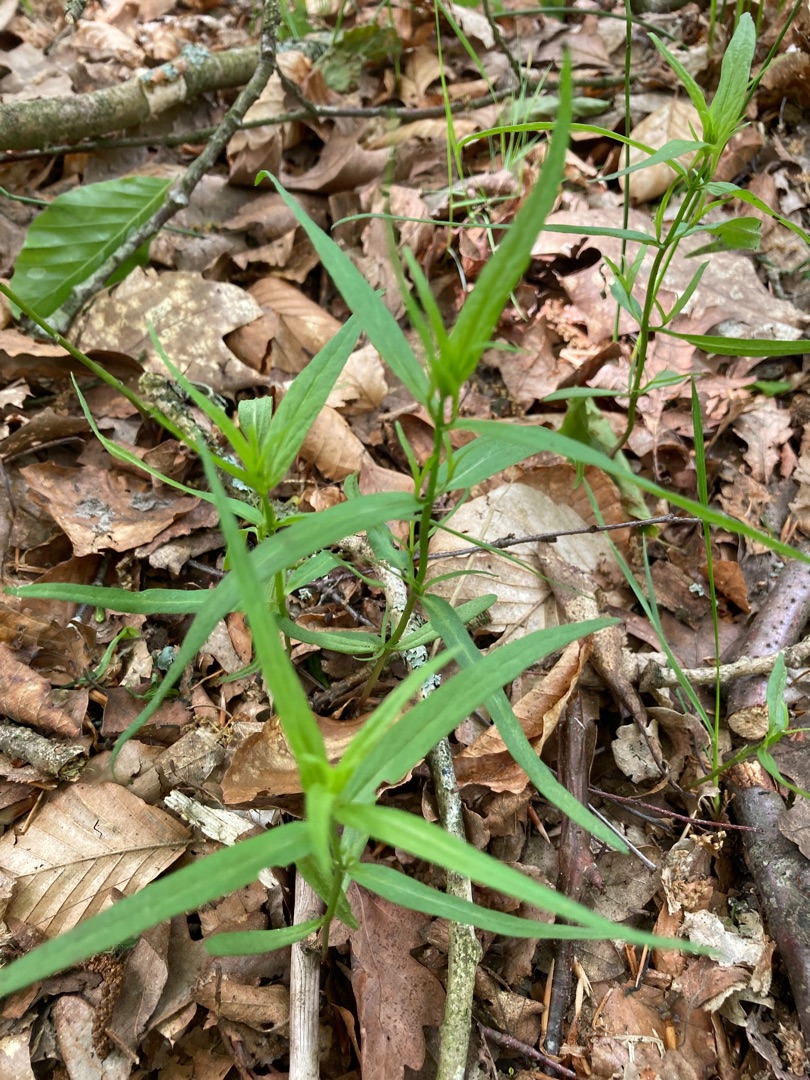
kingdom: Plantae
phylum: Tracheophyta
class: Magnoliopsida
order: Lamiales
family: Orobanchaceae
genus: Melampyrum
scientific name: Melampyrum
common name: Kohvedeslægten
